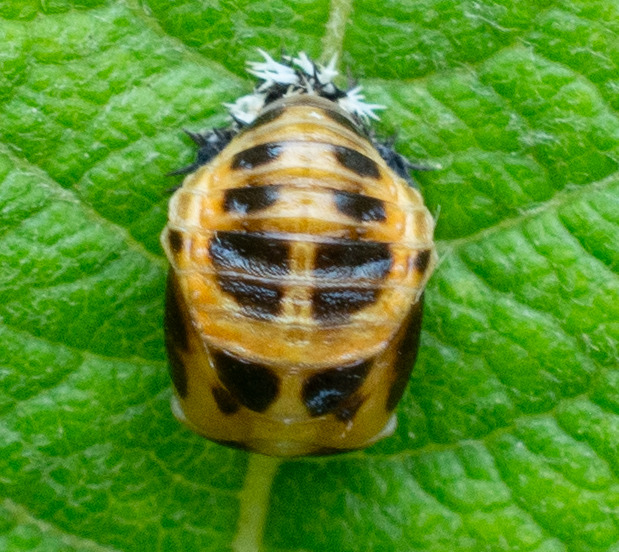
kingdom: Animalia
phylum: Arthropoda
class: Insecta
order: Coleoptera
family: Coccinellidae
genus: Harmonia
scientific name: Harmonia axyridis
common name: Harlekinmariehøne
